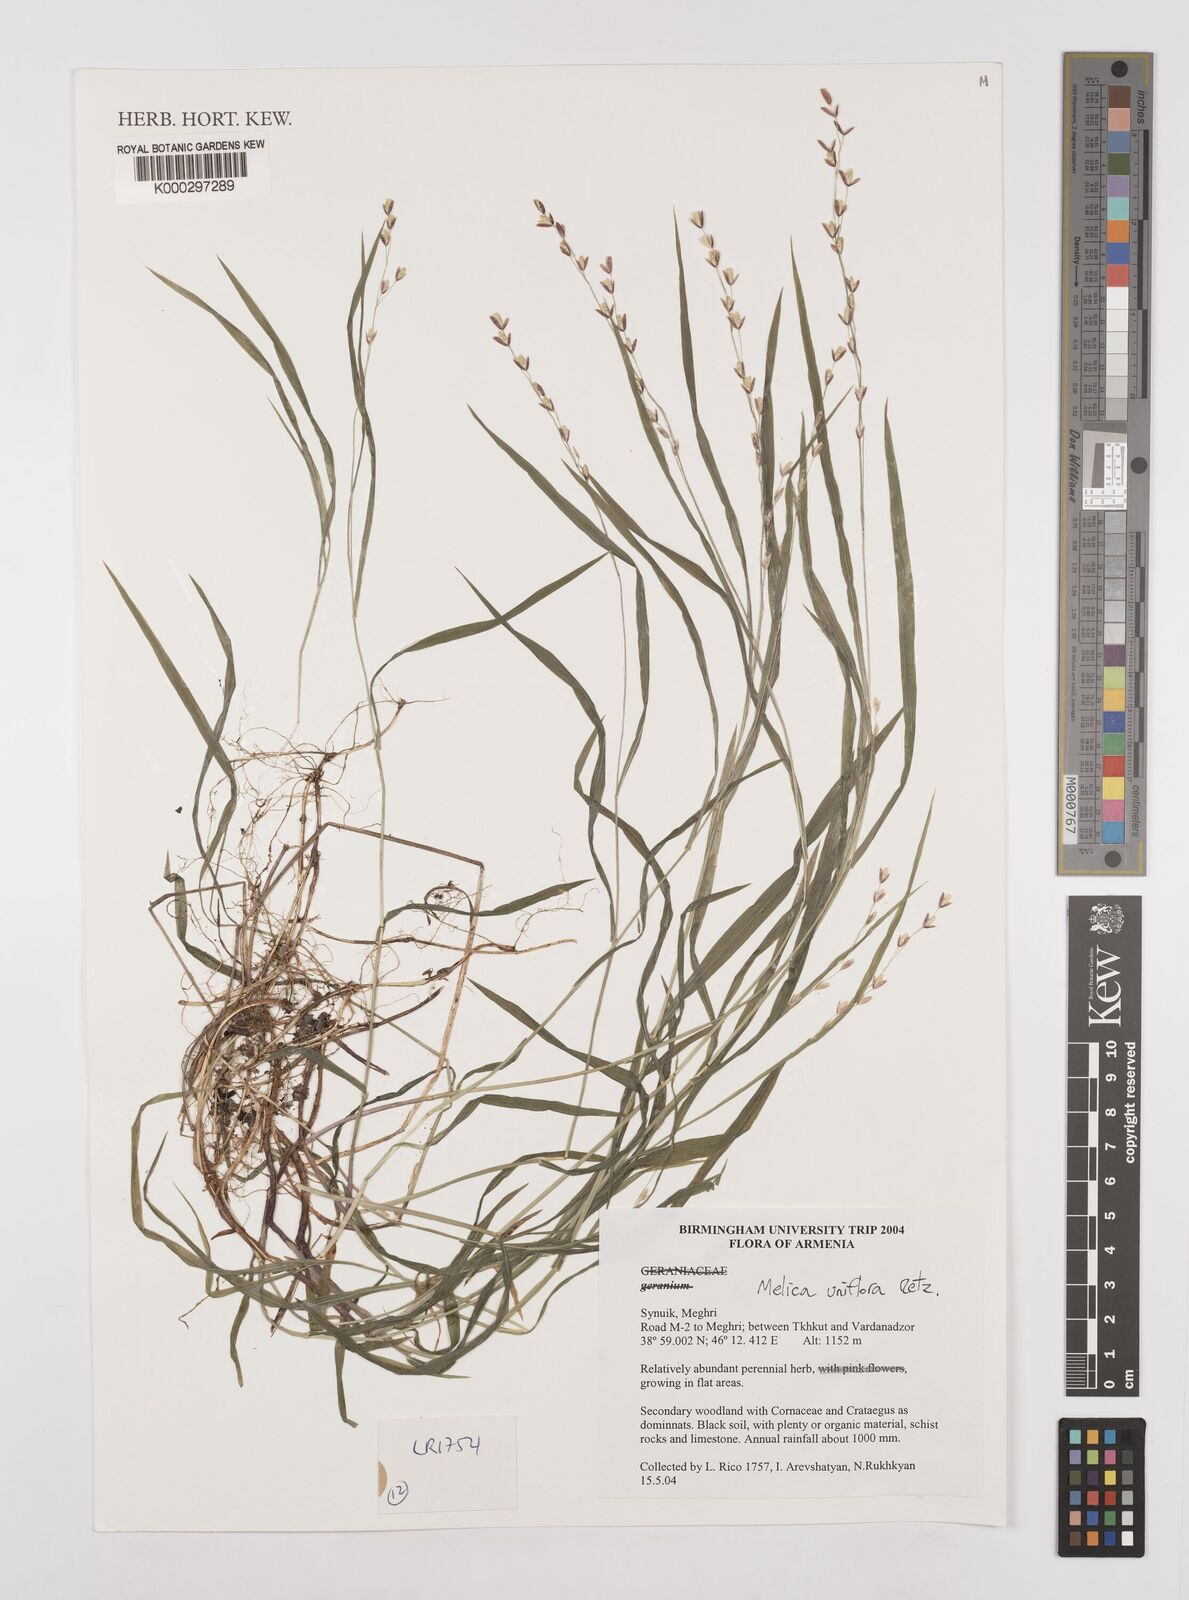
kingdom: Plantae
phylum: Tracheophyta
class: Magnoliopsida
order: Geraniales
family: Geraniaceae
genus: Geranium
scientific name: Geranium
